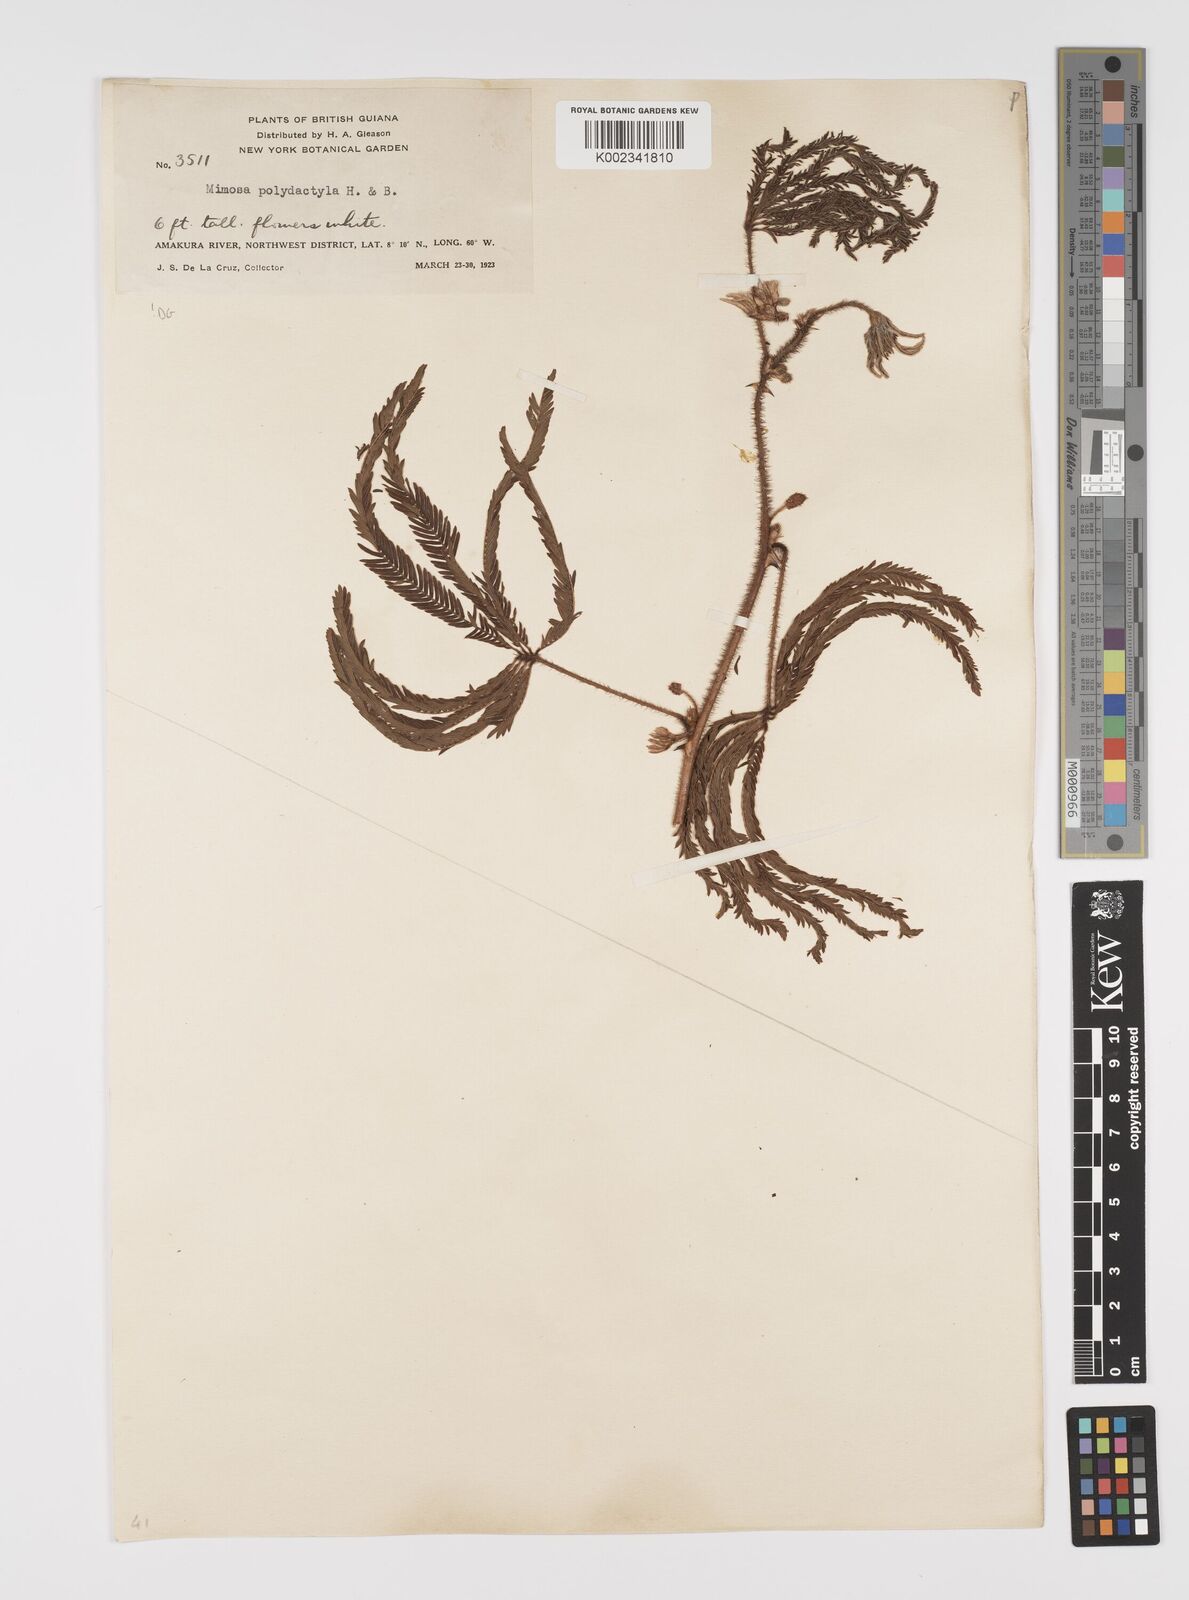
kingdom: Plantae
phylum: Tracheophyta
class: Magnoliopsida
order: Fabales
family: Fabaceae
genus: Mimosa
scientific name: Mimosa polydactyla
